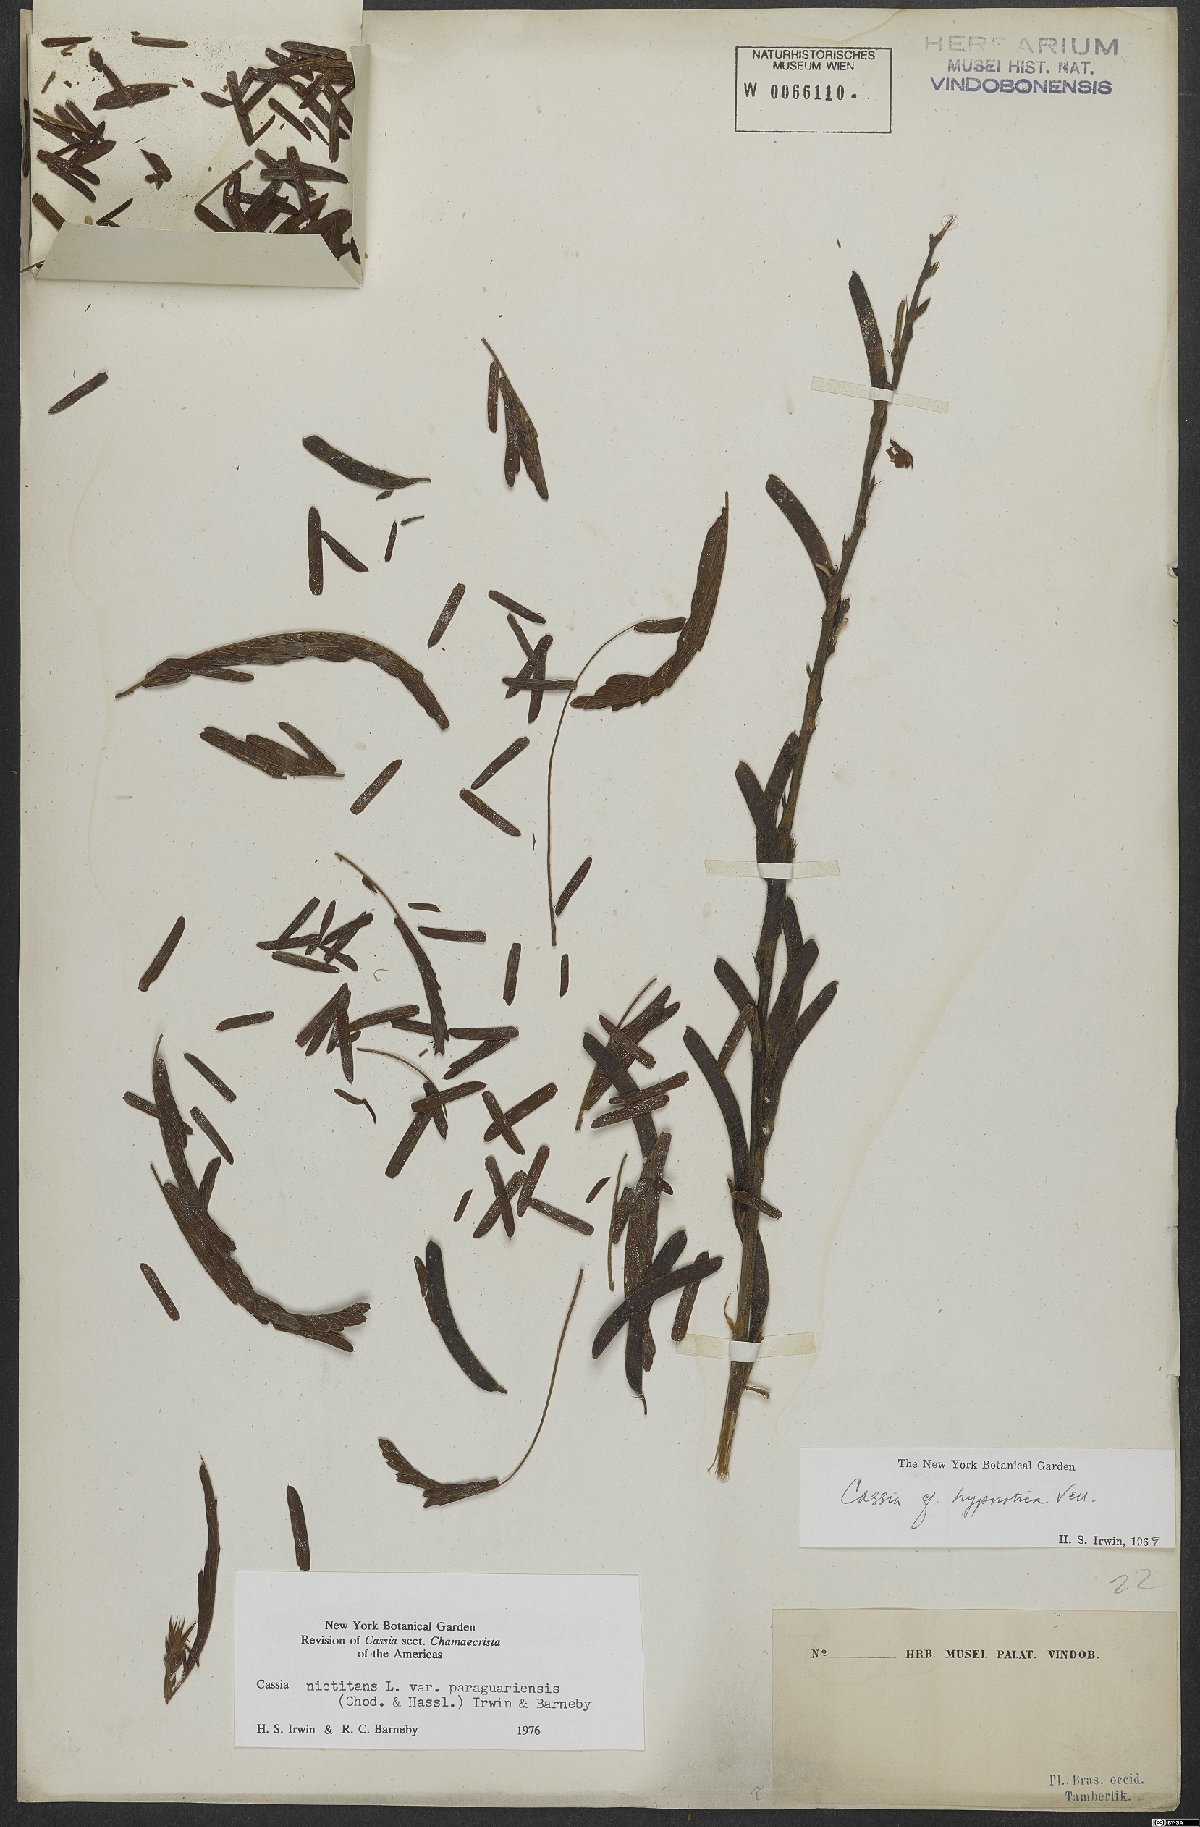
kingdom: Plantae
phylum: Tracheophyta
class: Magnoliopsida
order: Fabales
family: Fabaceae
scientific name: Fabaceae
